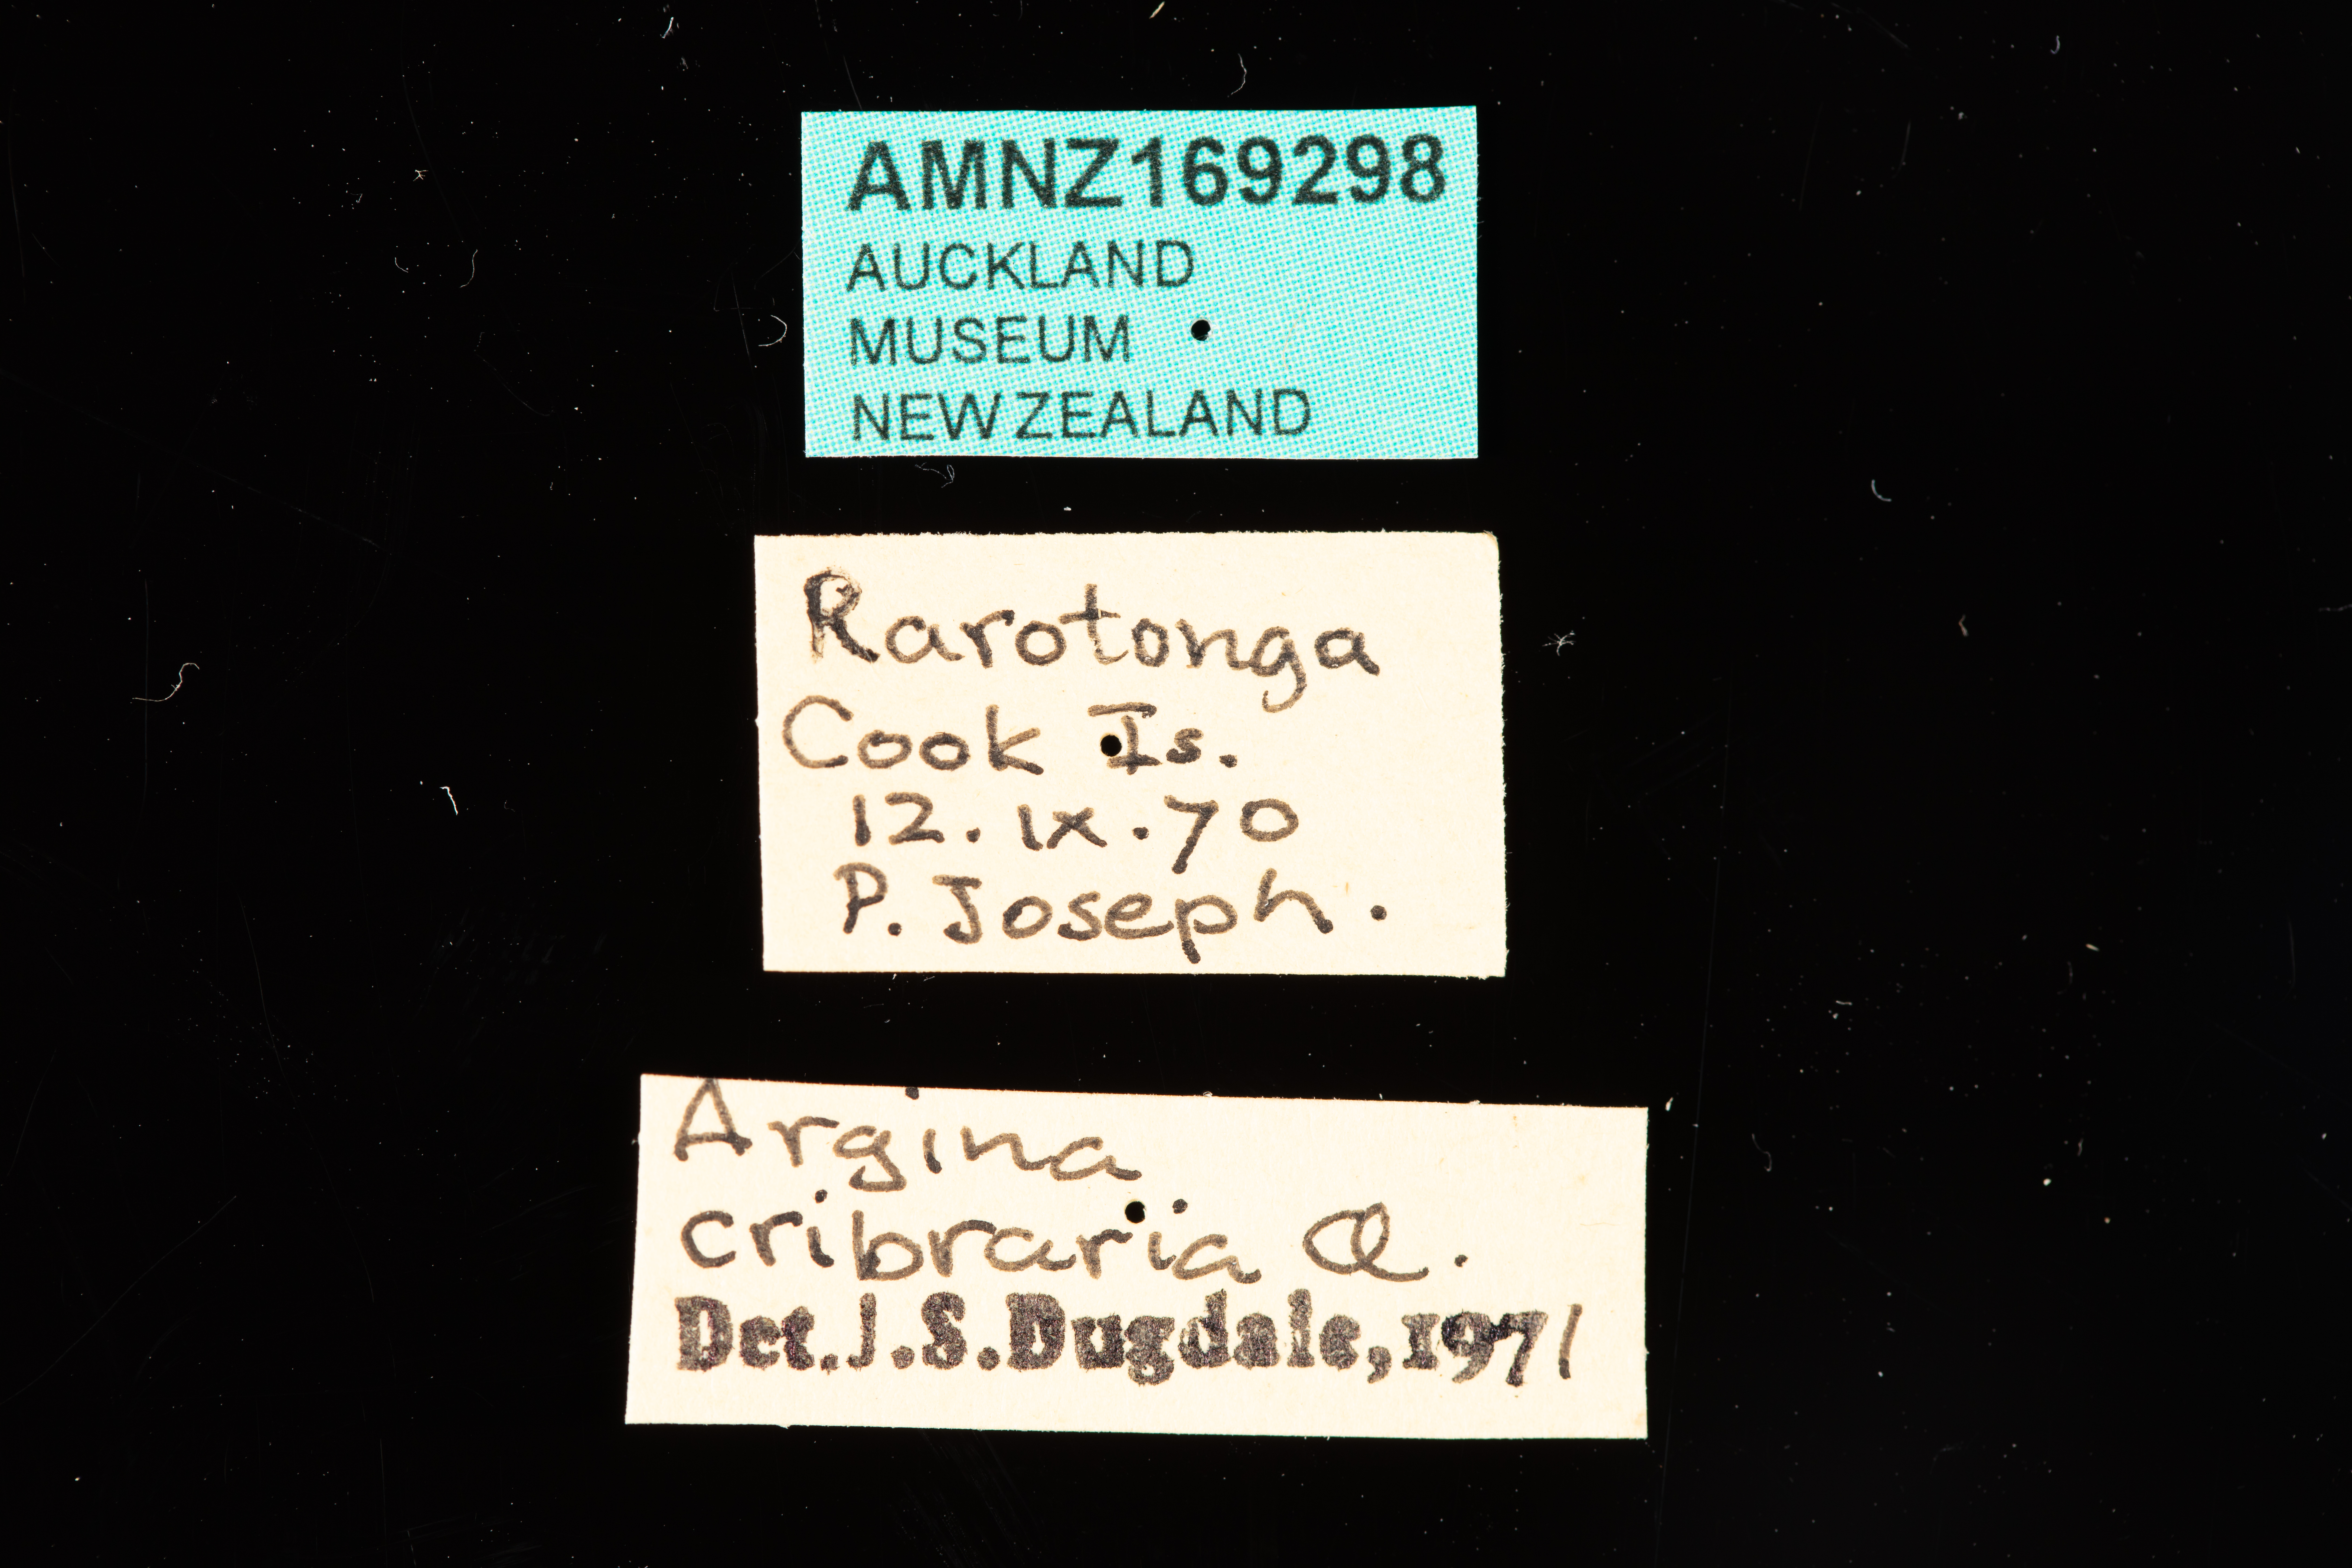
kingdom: Animalia
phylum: Arthropoda
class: Insecta
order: Lepidoptera
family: Erebidae
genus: Argina
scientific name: Argina astrea
